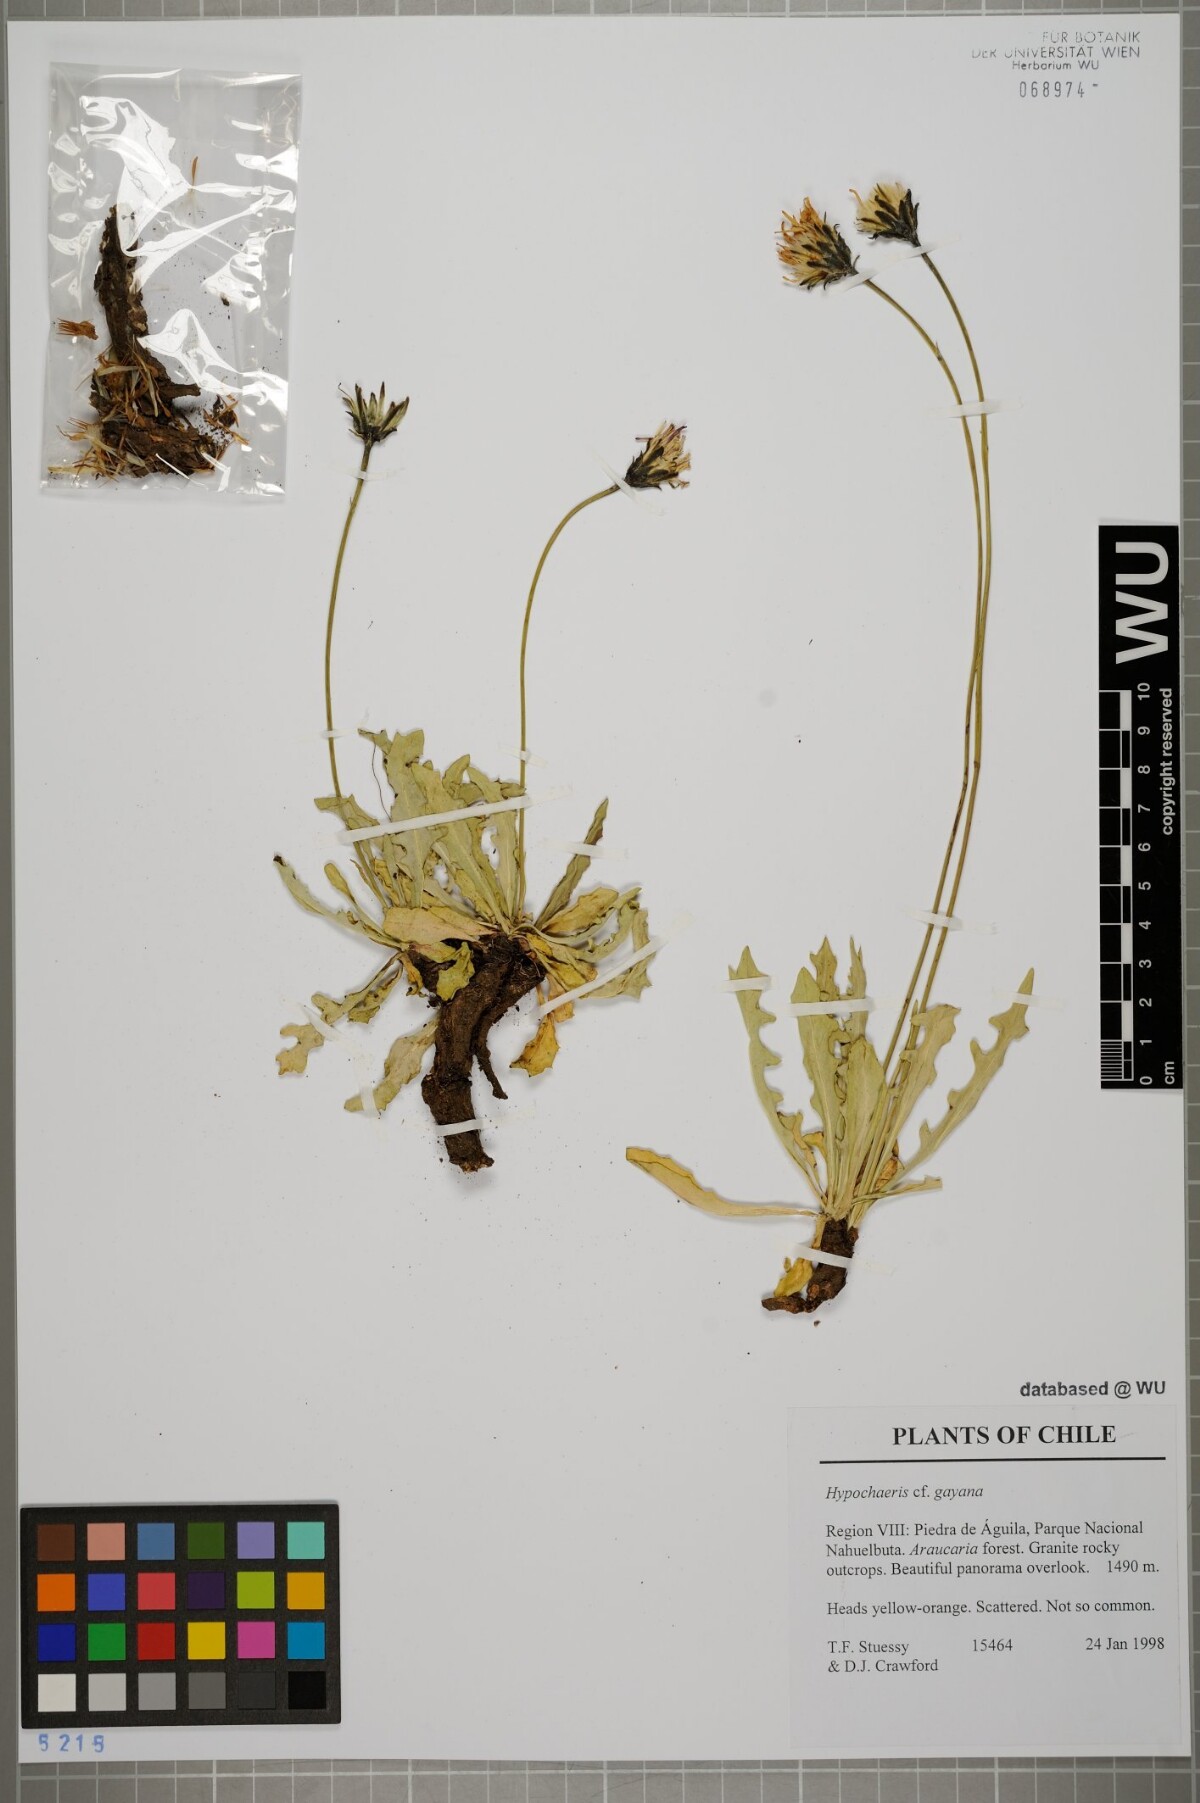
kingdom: Plantae
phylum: Tracheophyta
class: Magnoliopsida
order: Asterales
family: Asteraceae
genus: Hypochaeris
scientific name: Hypochaeris melanolepis
